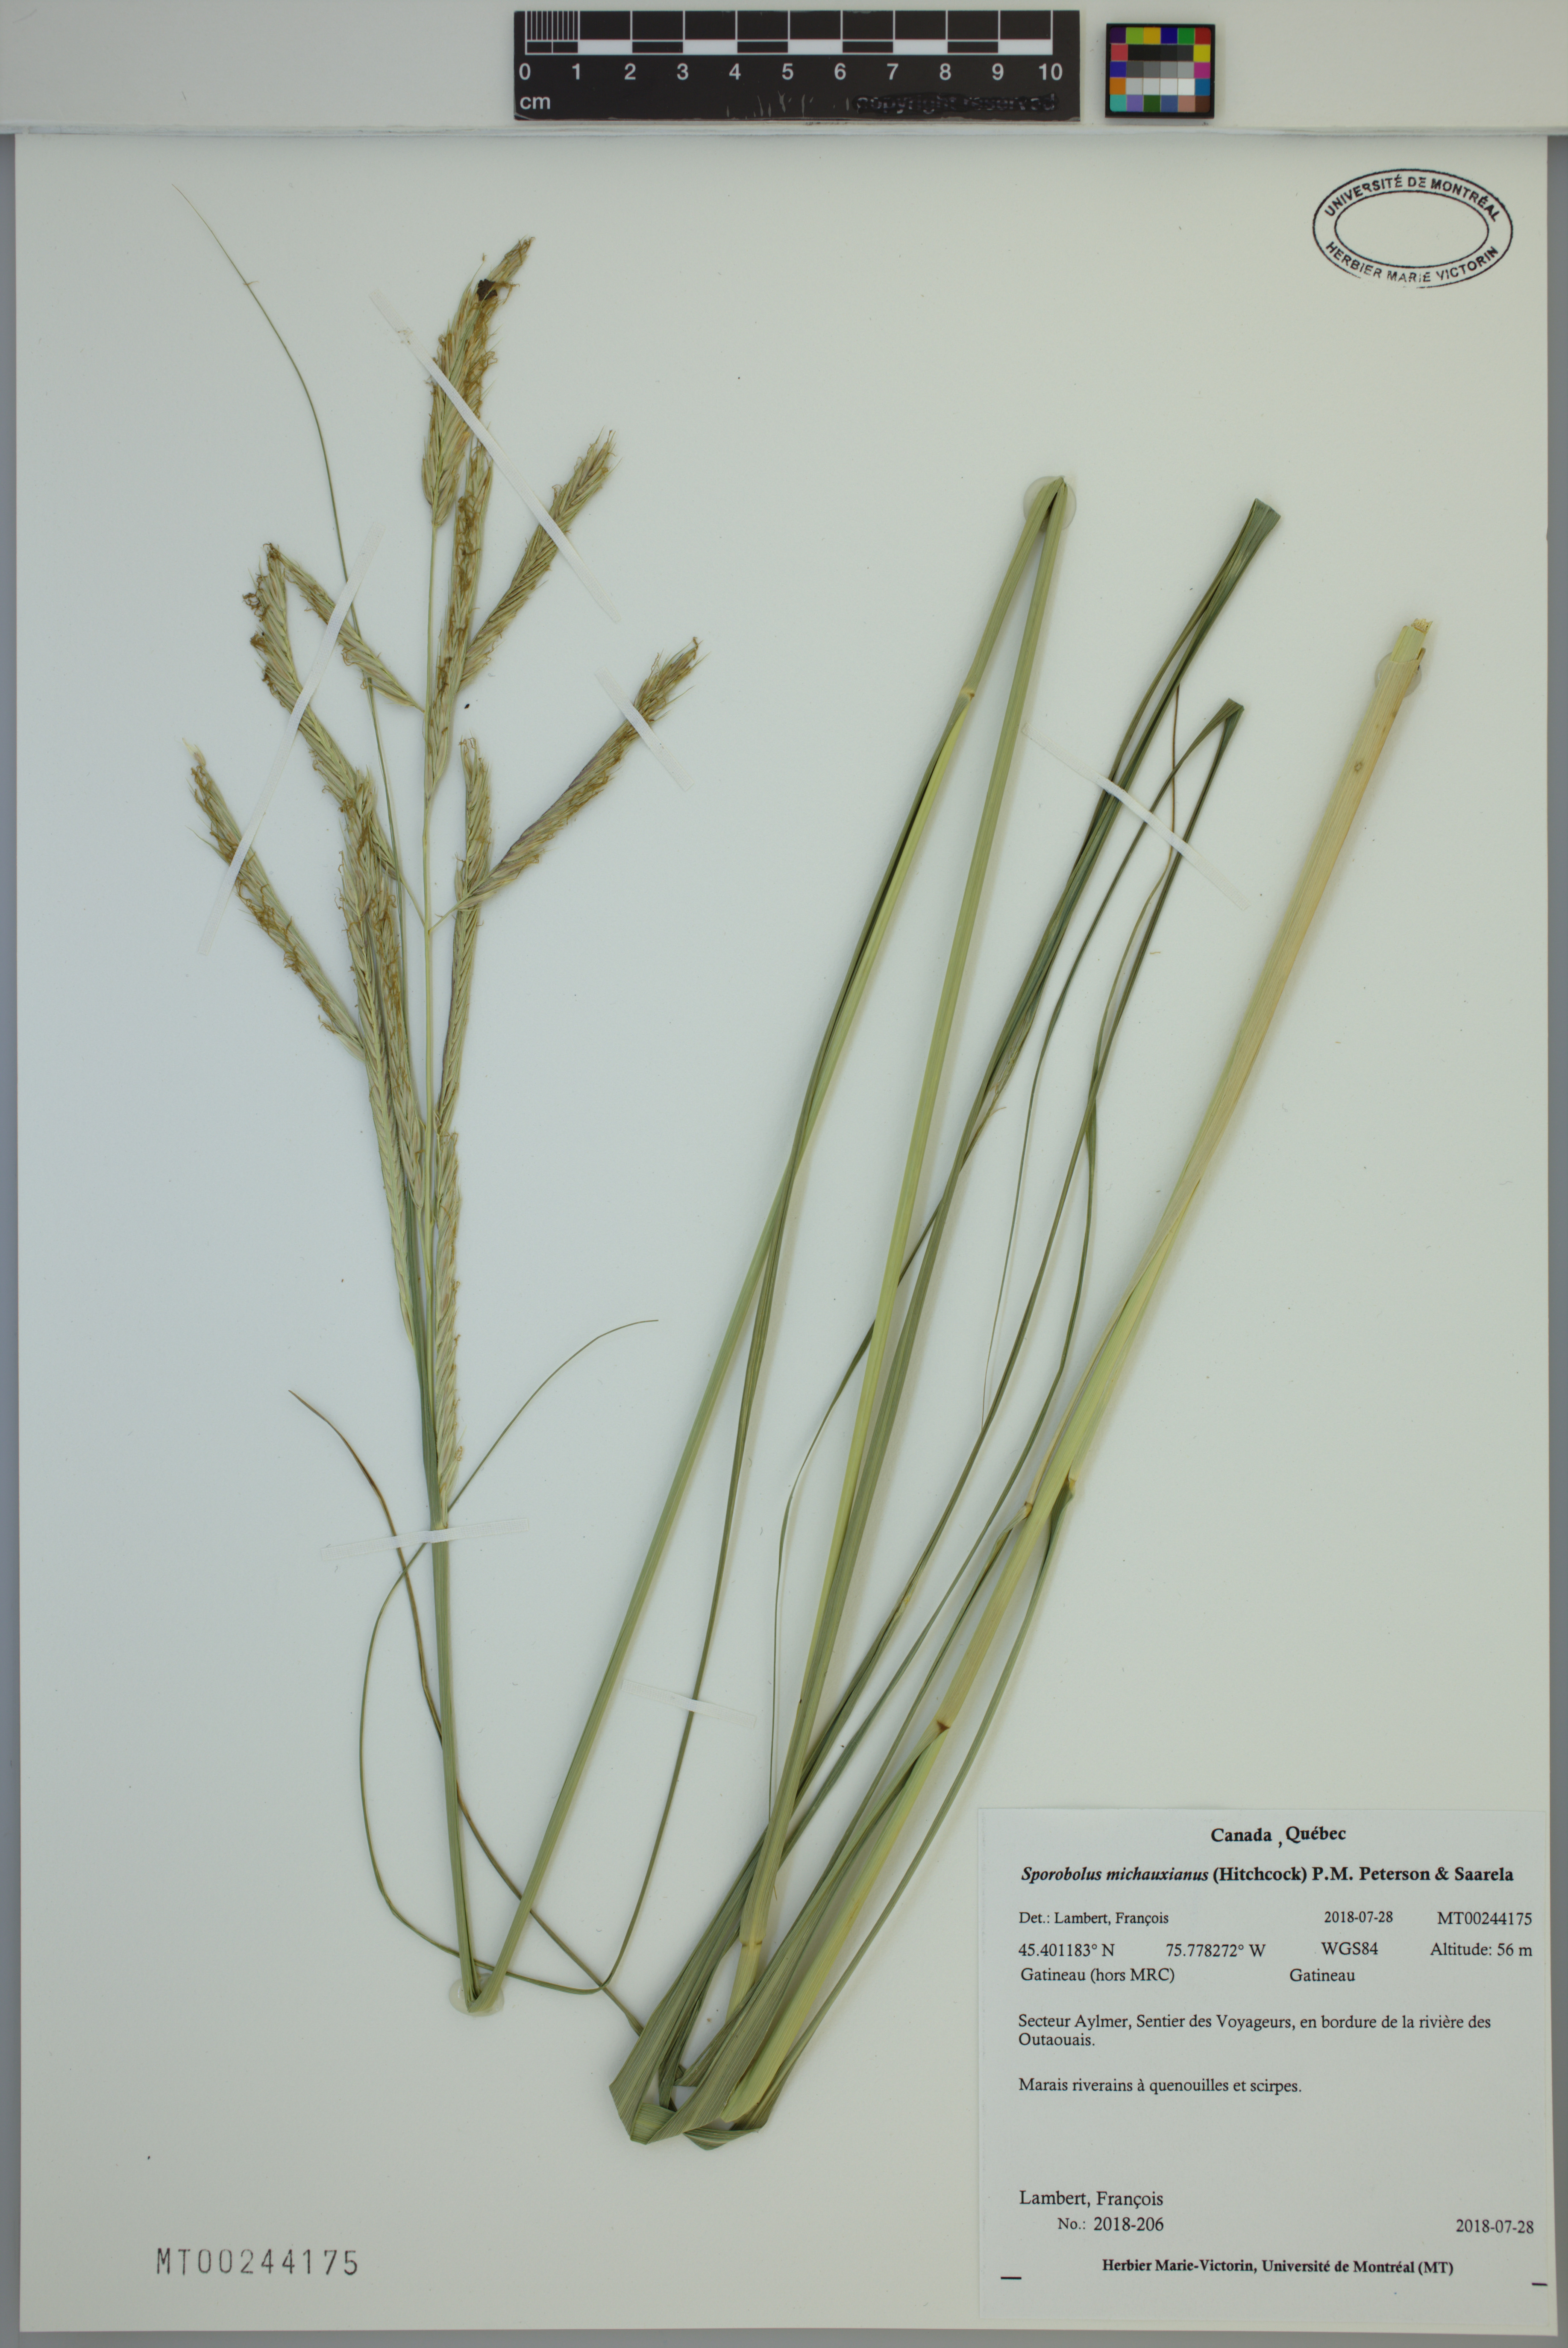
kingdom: Plantae
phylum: Tracheophyta
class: Liliopsida
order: Poales
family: Poaceae
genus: Sporobolus
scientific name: Sporobolus michauxianus
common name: Freshwater cordgrass
